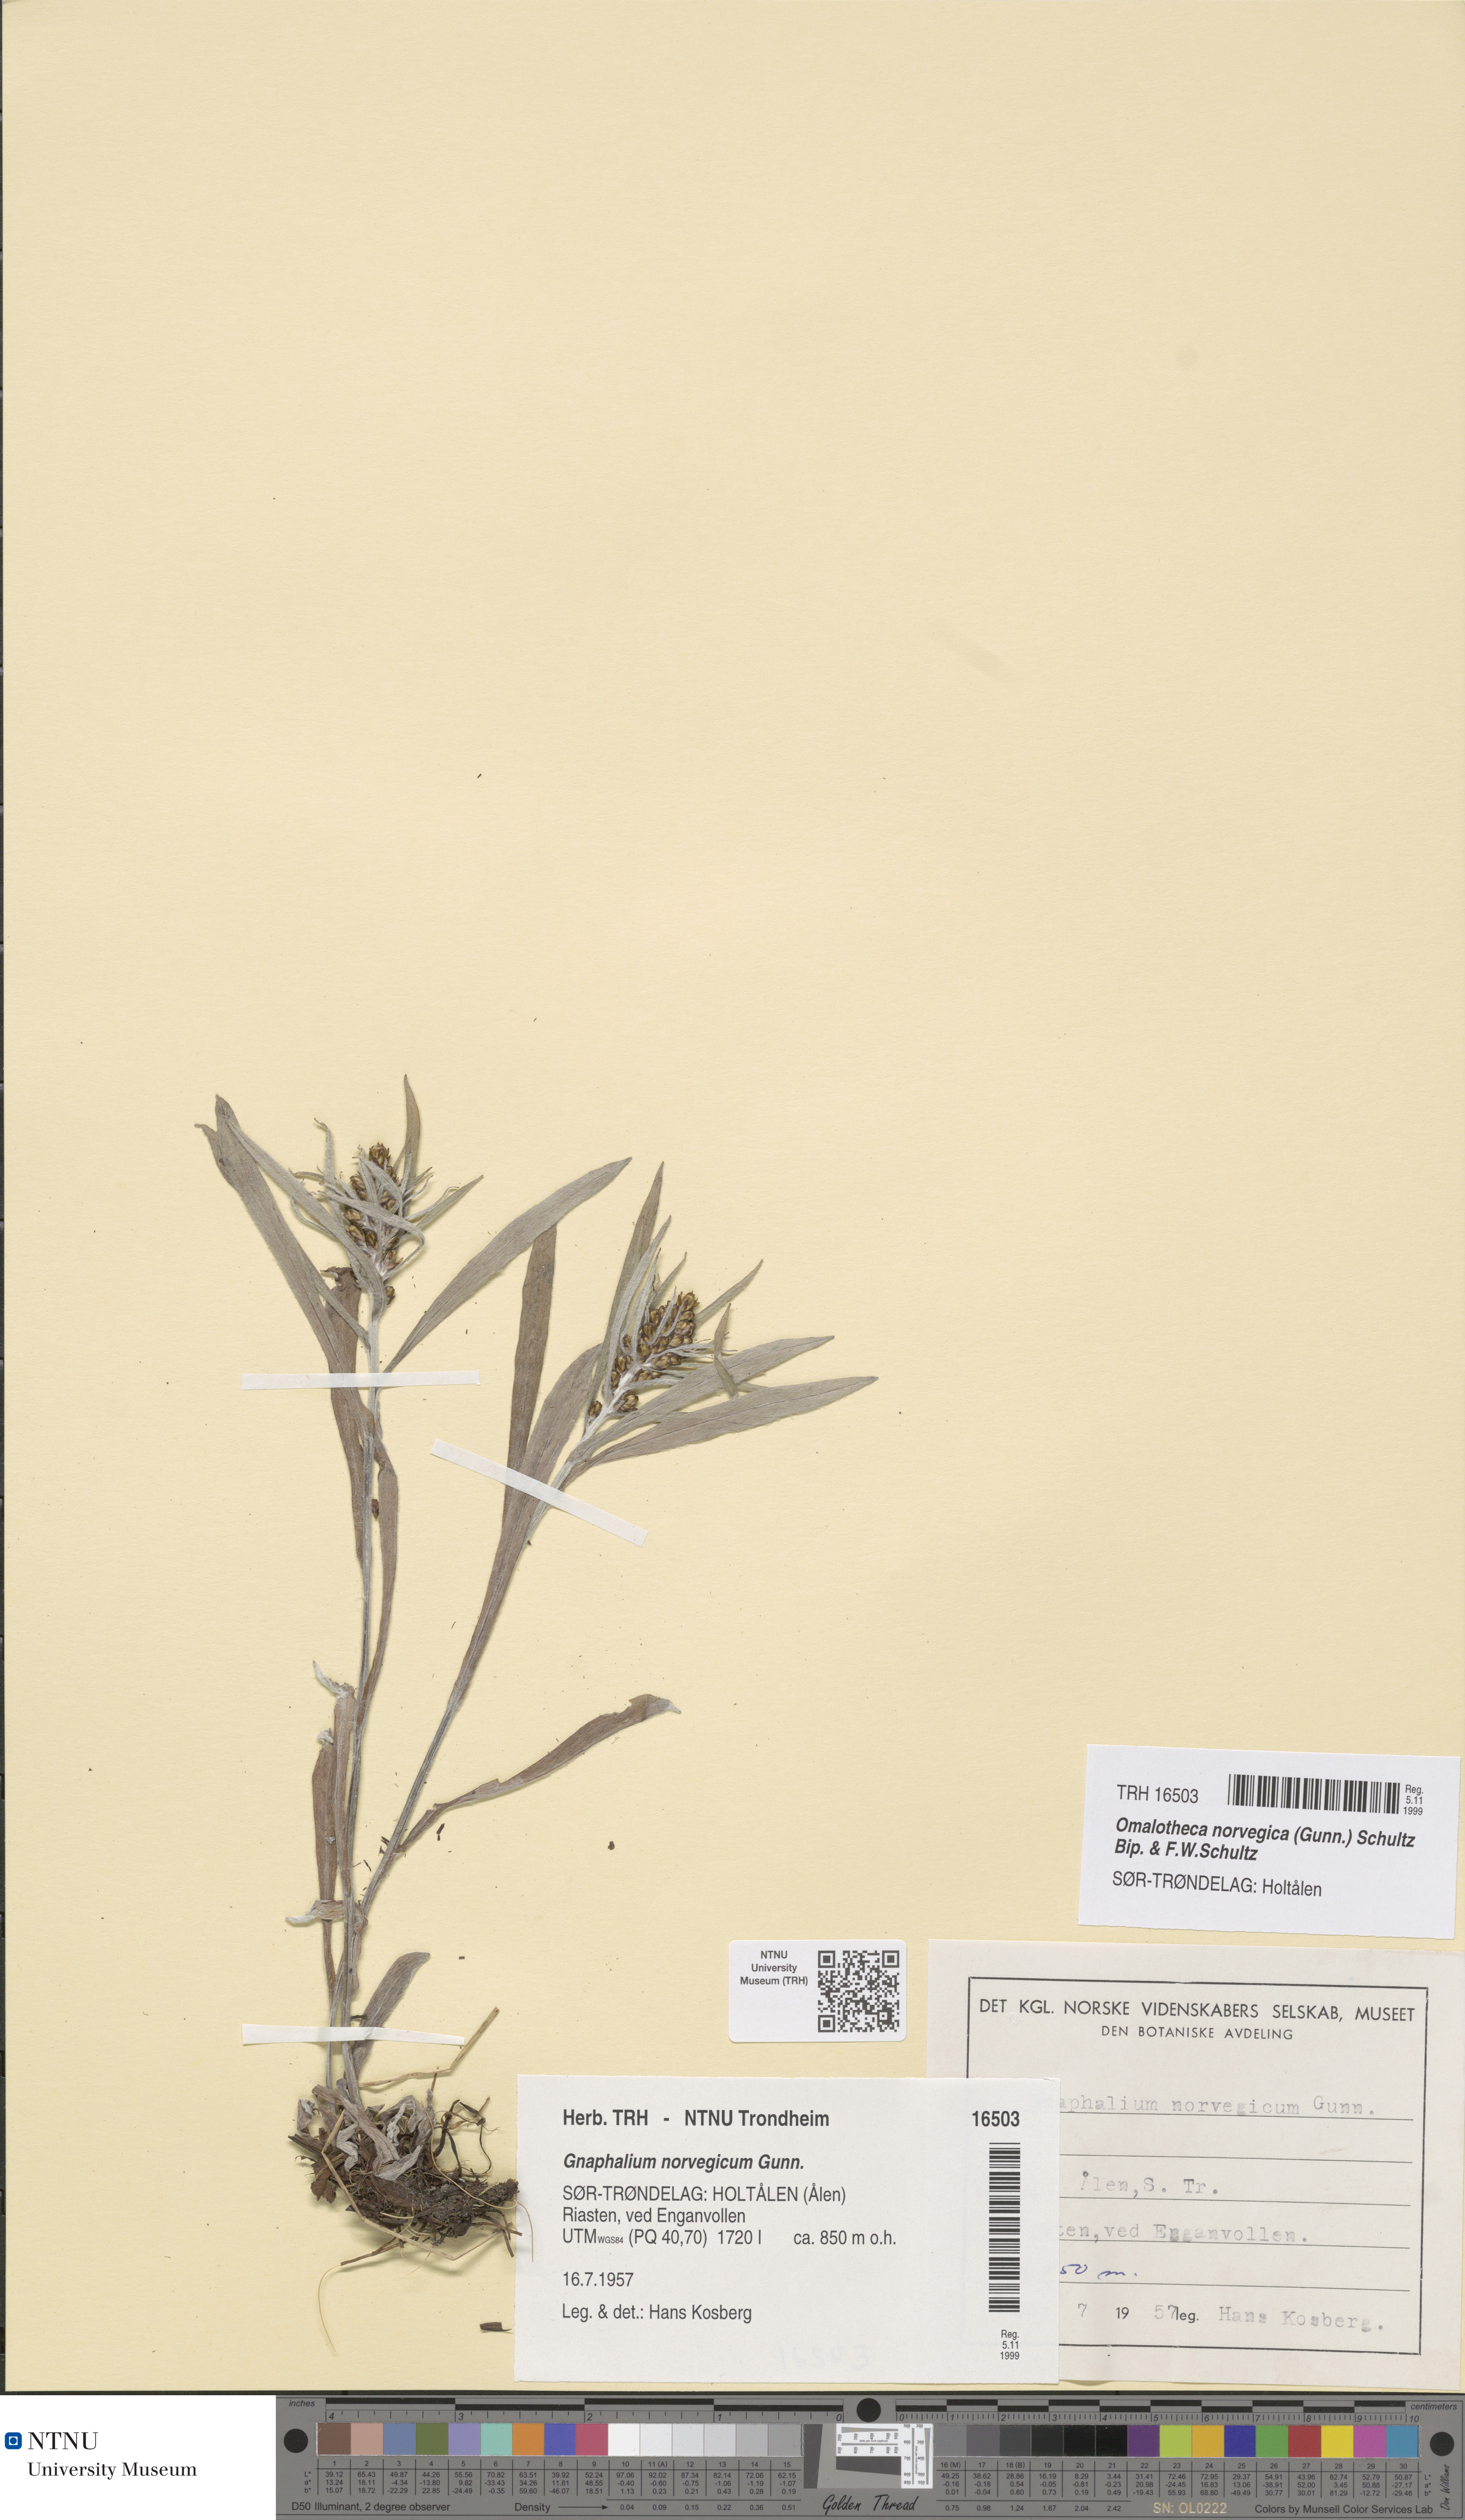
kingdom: Plantae
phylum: Tracheophyta
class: Magnoliopsida
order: Asterales
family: Asteraceae
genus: Omalotheca
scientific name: Omalotheca norvegica
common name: Norwegian arctic-cudweed
